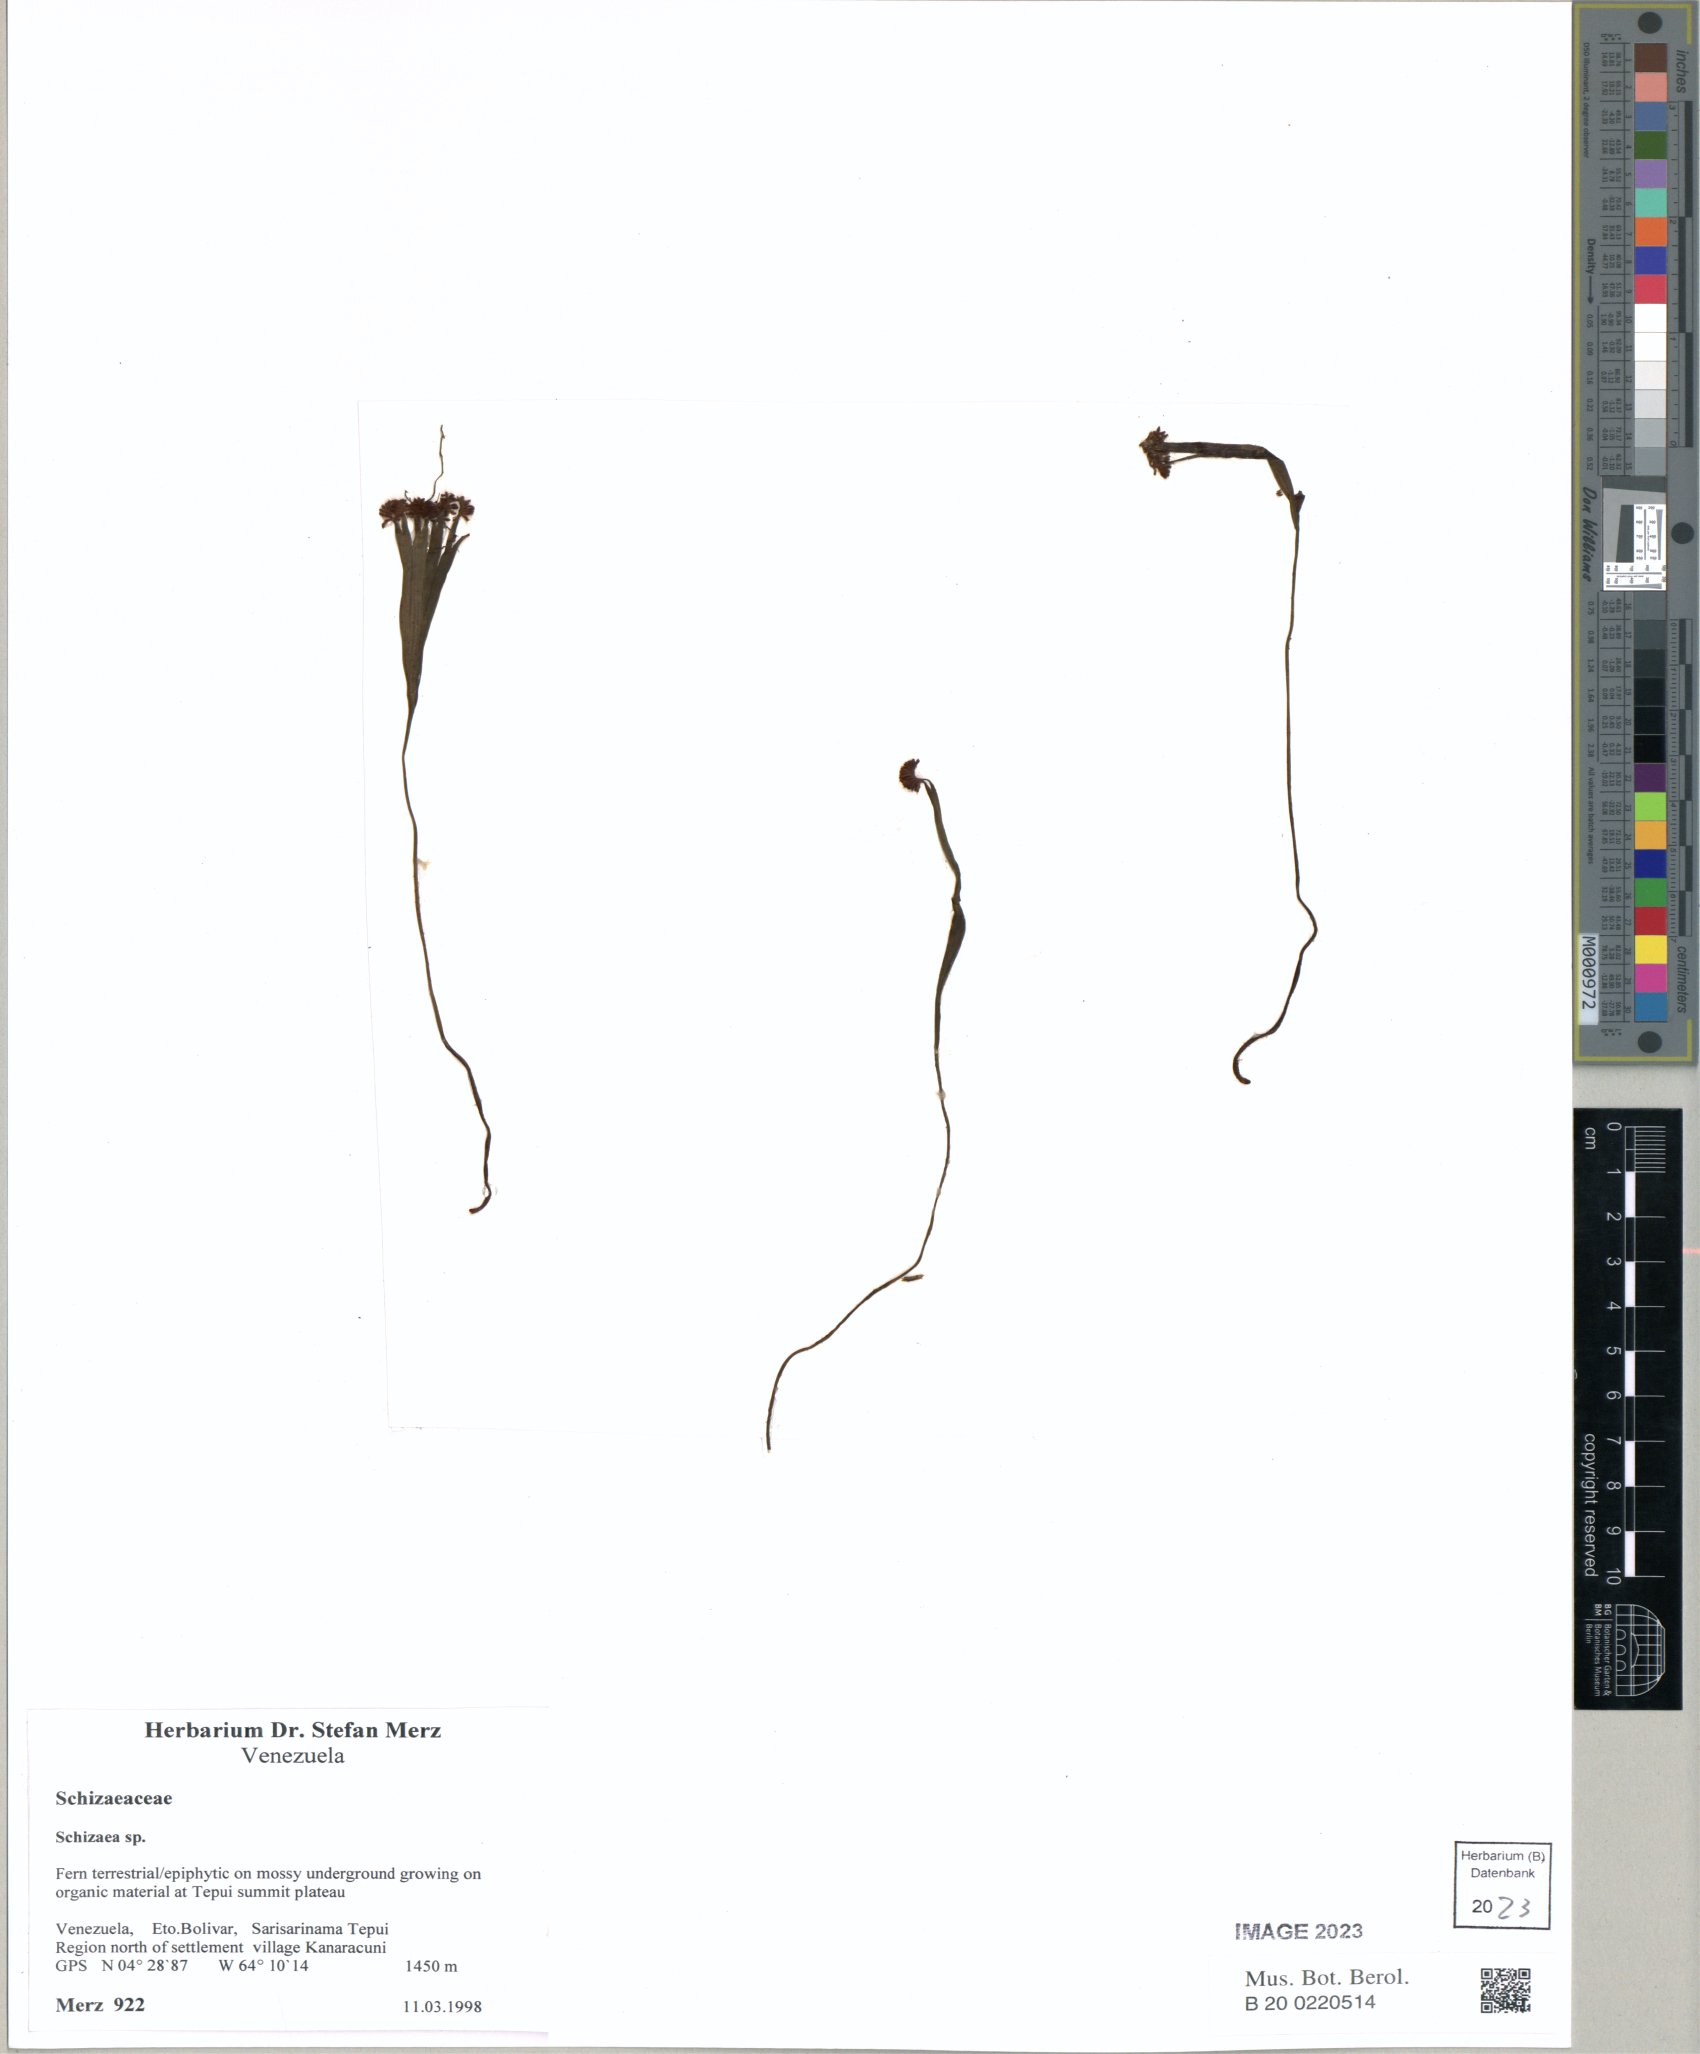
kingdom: Plantae
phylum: Tracheophyta
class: Polypodiopsida
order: Schizaeales
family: Schizaeaceae
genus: Schizaea
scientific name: Schizaea
